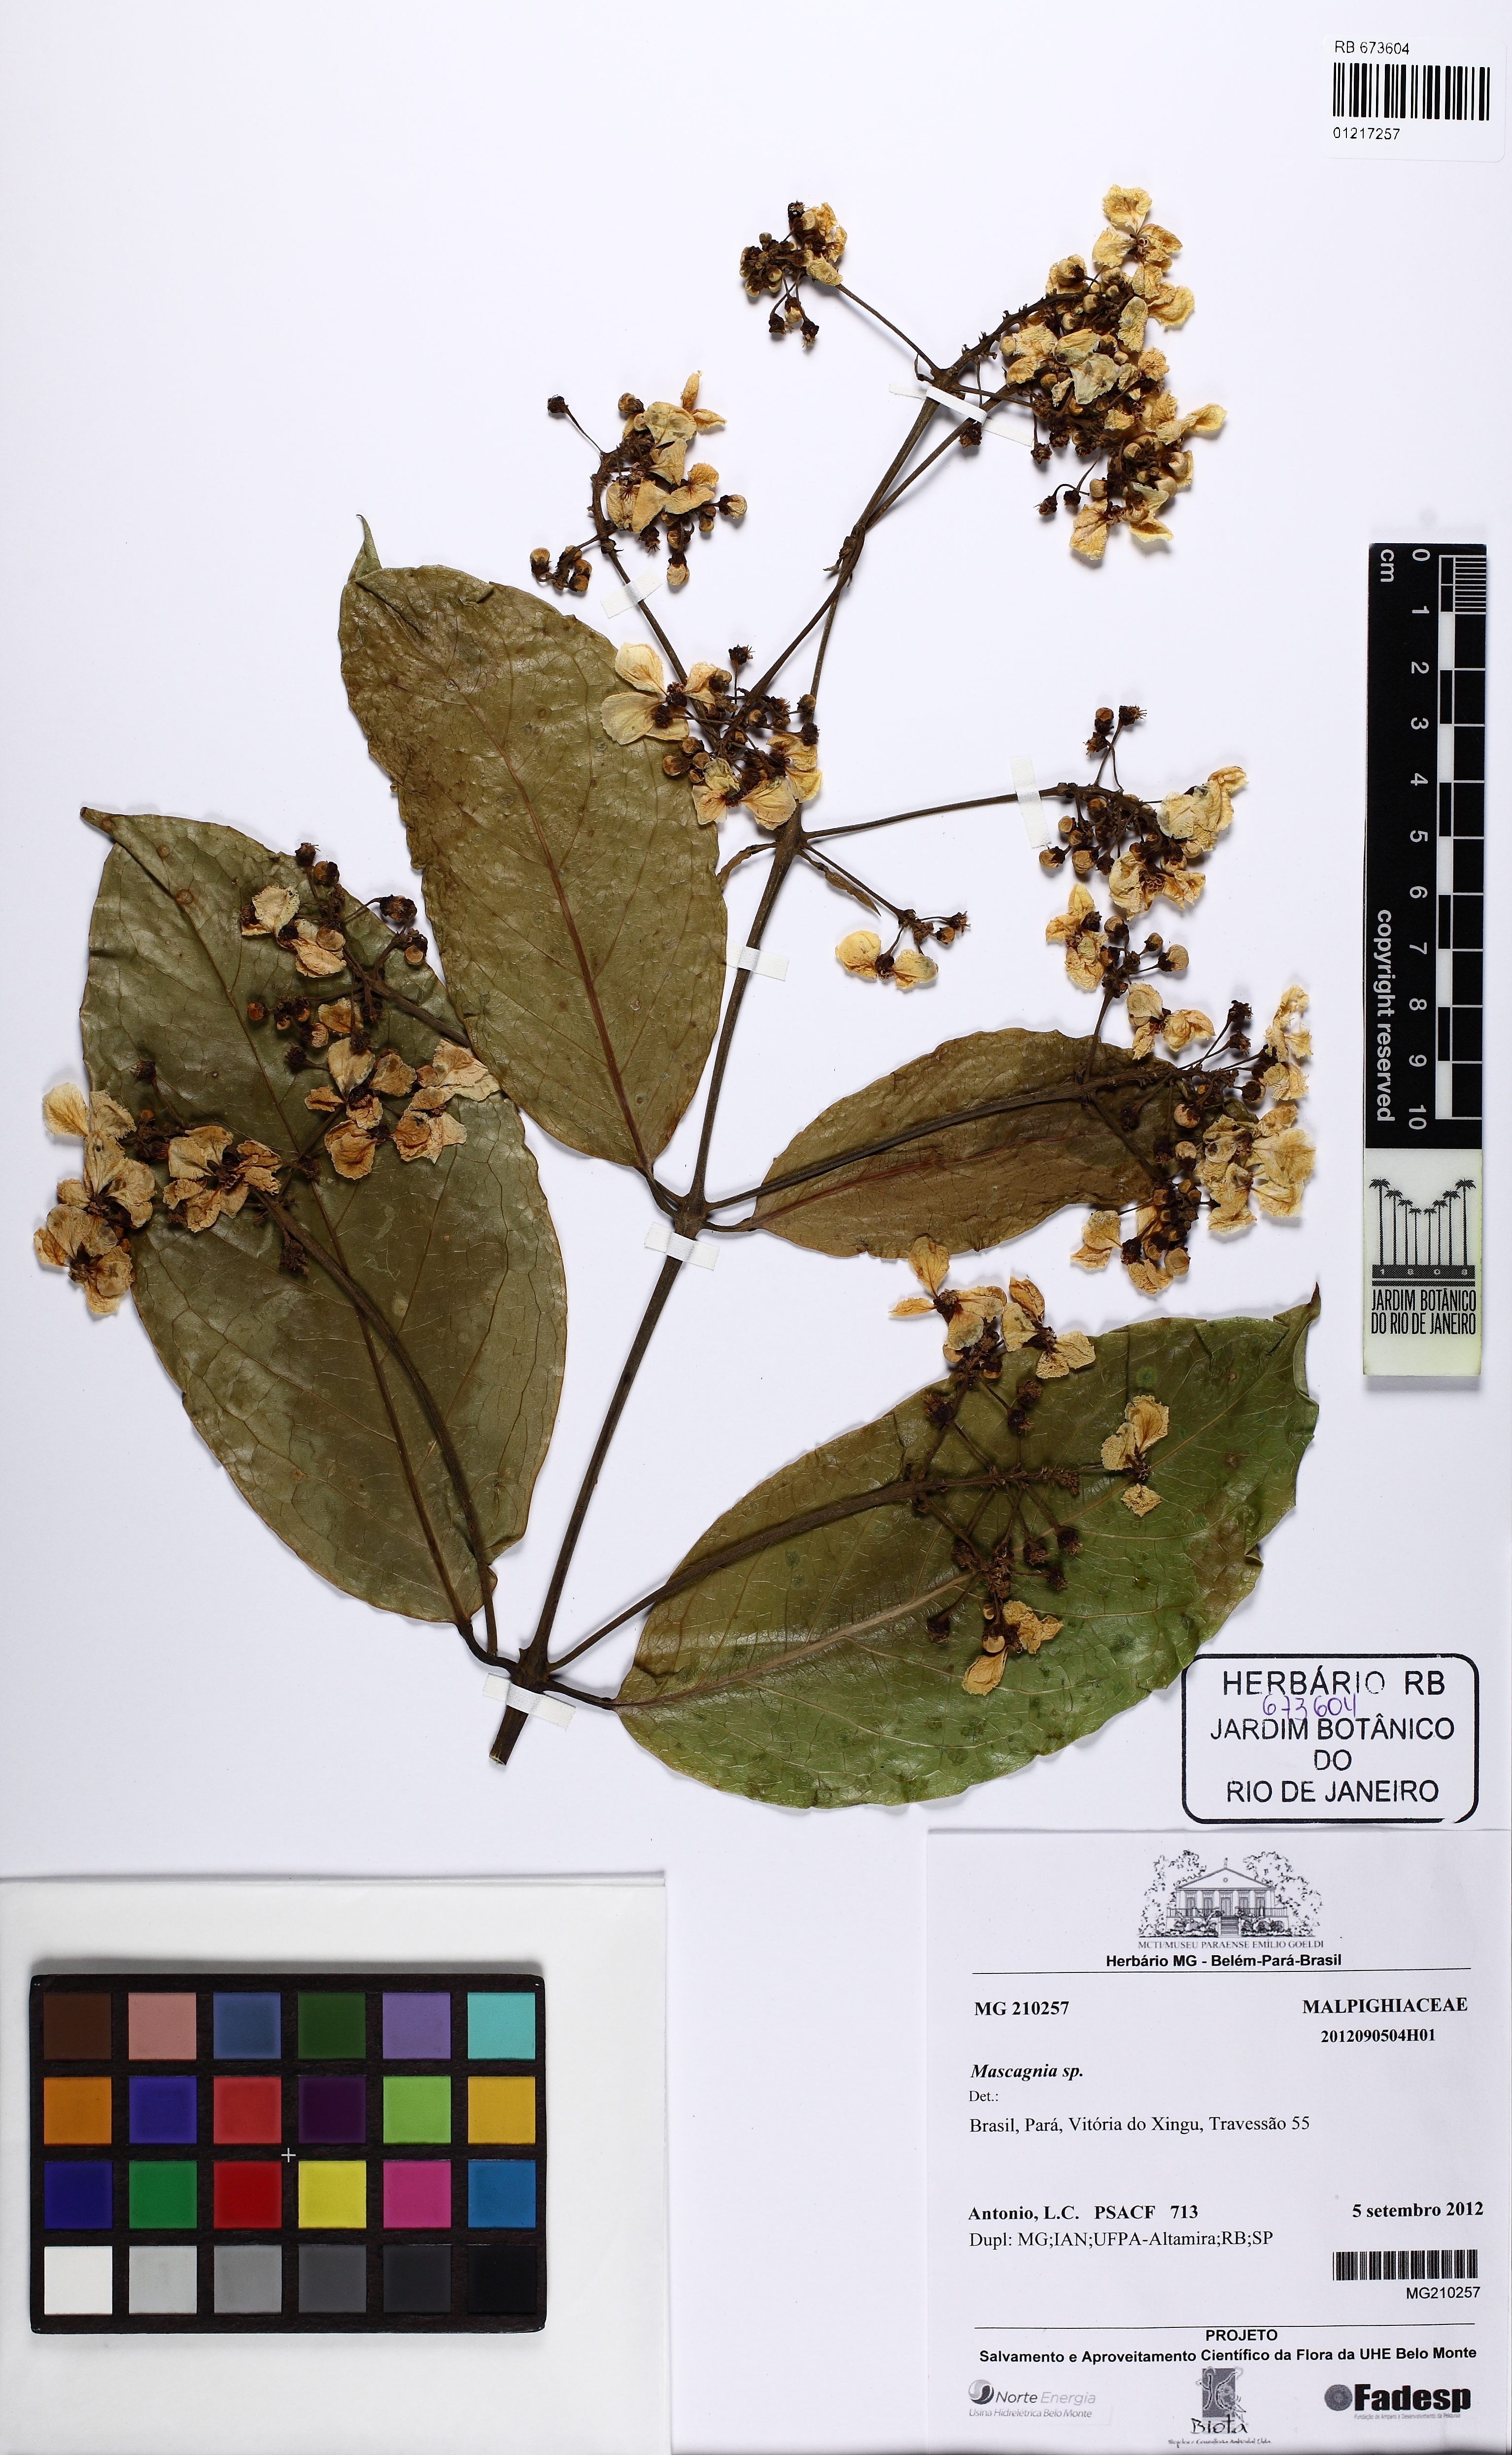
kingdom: Plantae
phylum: Tracheophyta
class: Magnoliopsida
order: Malpighiales
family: Malpighiaceae
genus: Bronwenia
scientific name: Bronwenia
